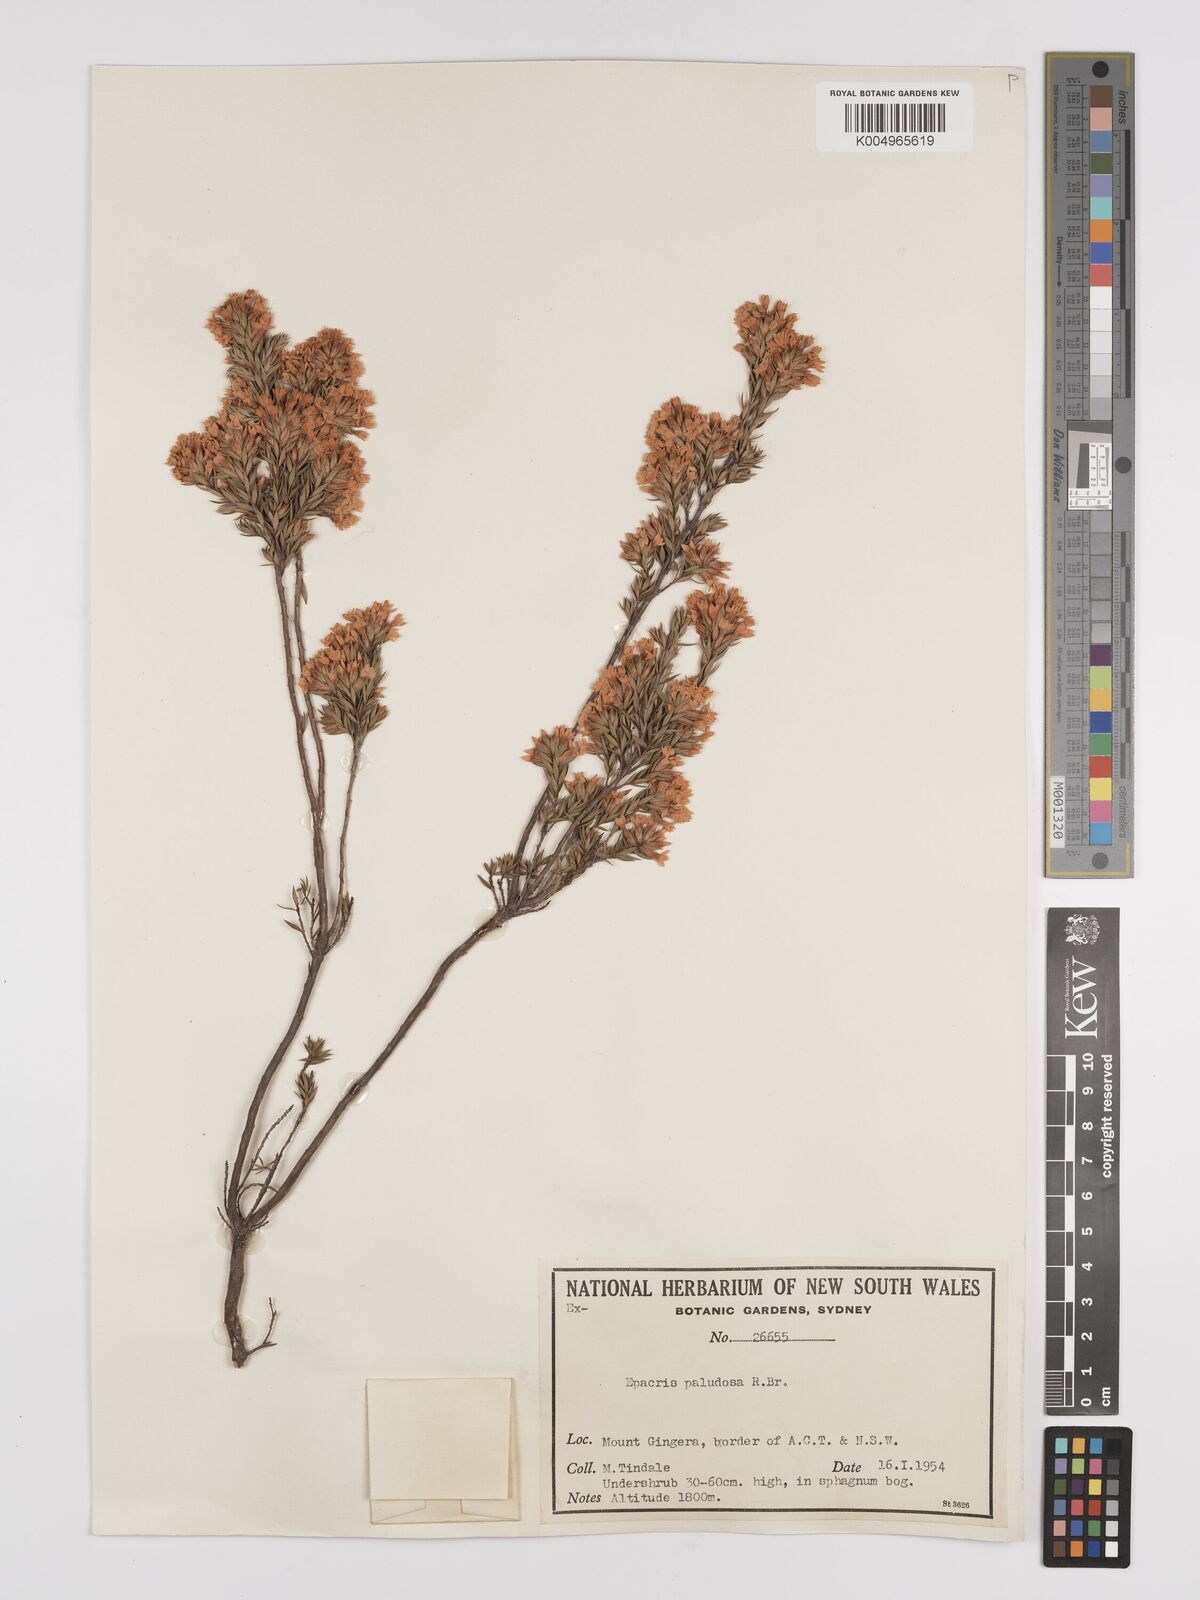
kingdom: Plantae
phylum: Tracheophyta
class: Magnoliopsida
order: Ericales
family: Ericaceae
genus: Epacris
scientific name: Epacris paludosa
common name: Swamp-heath
